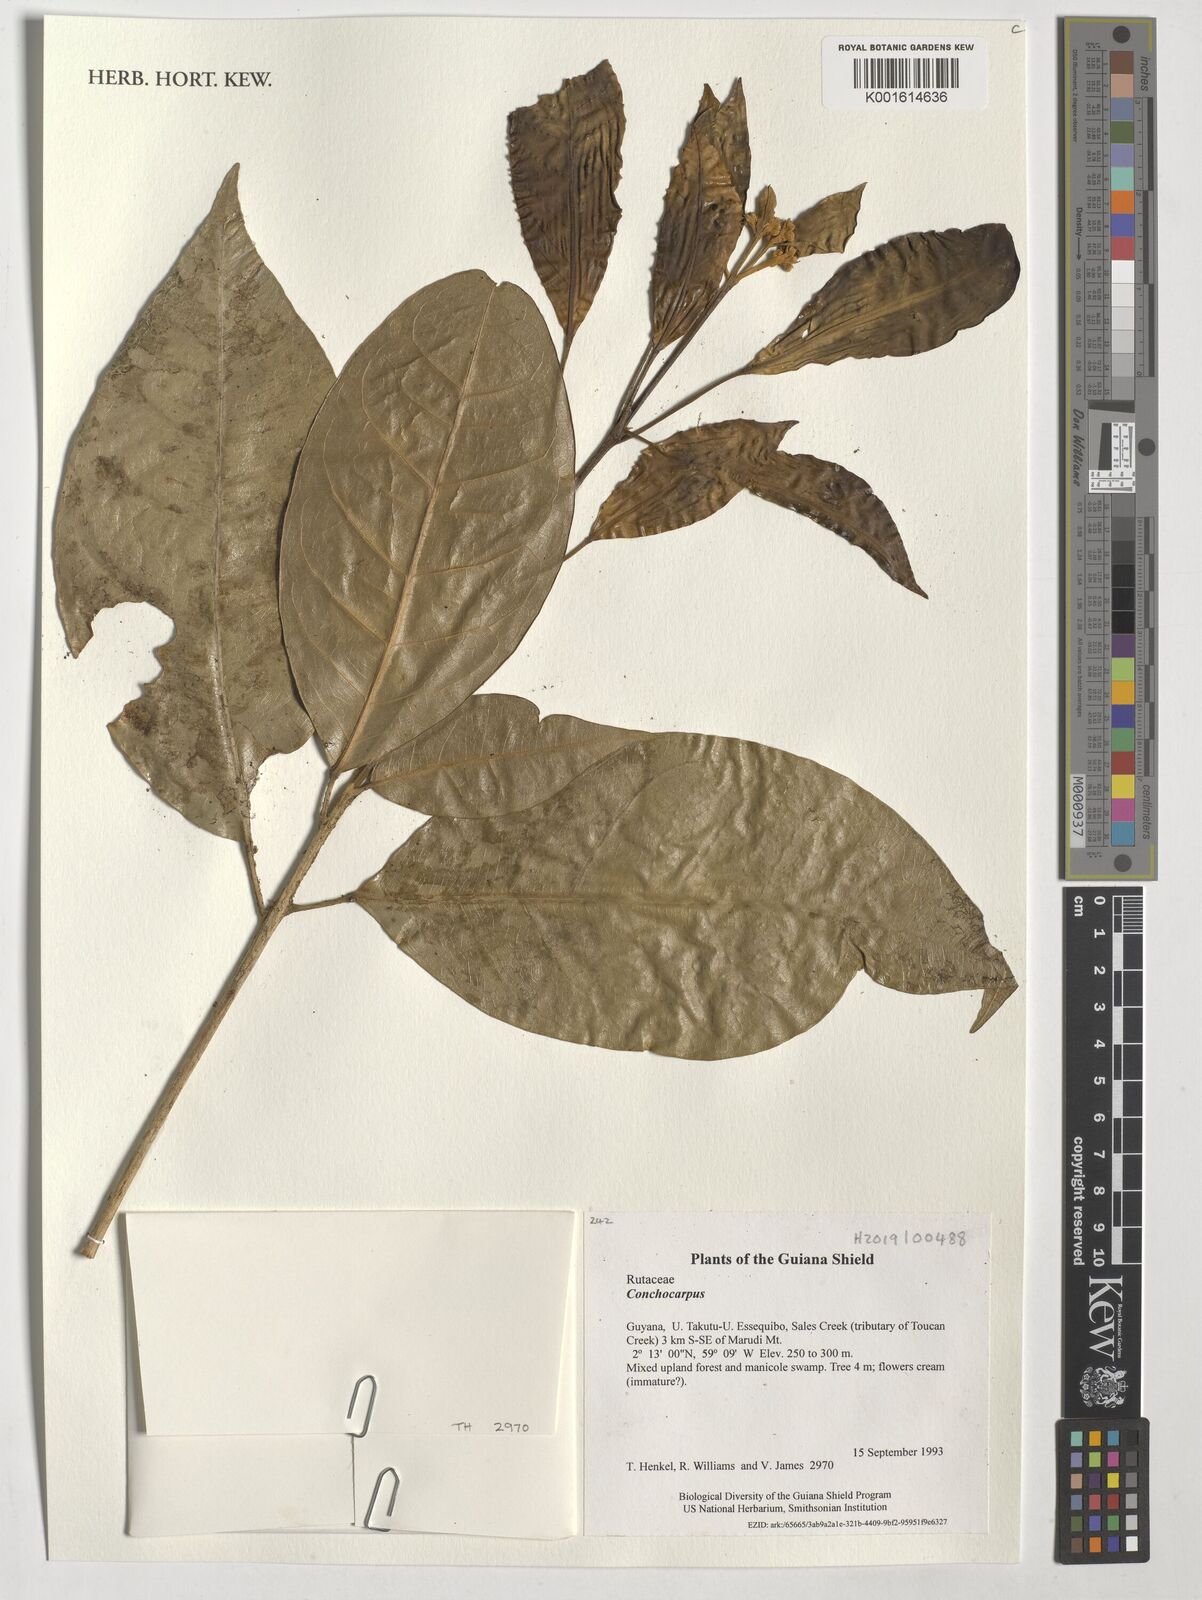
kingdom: Plantae
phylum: Tracheophyta
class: Magnoliopsida
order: Sapindales
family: Rutaceae
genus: Conchocarpus
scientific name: Conchocarpus
